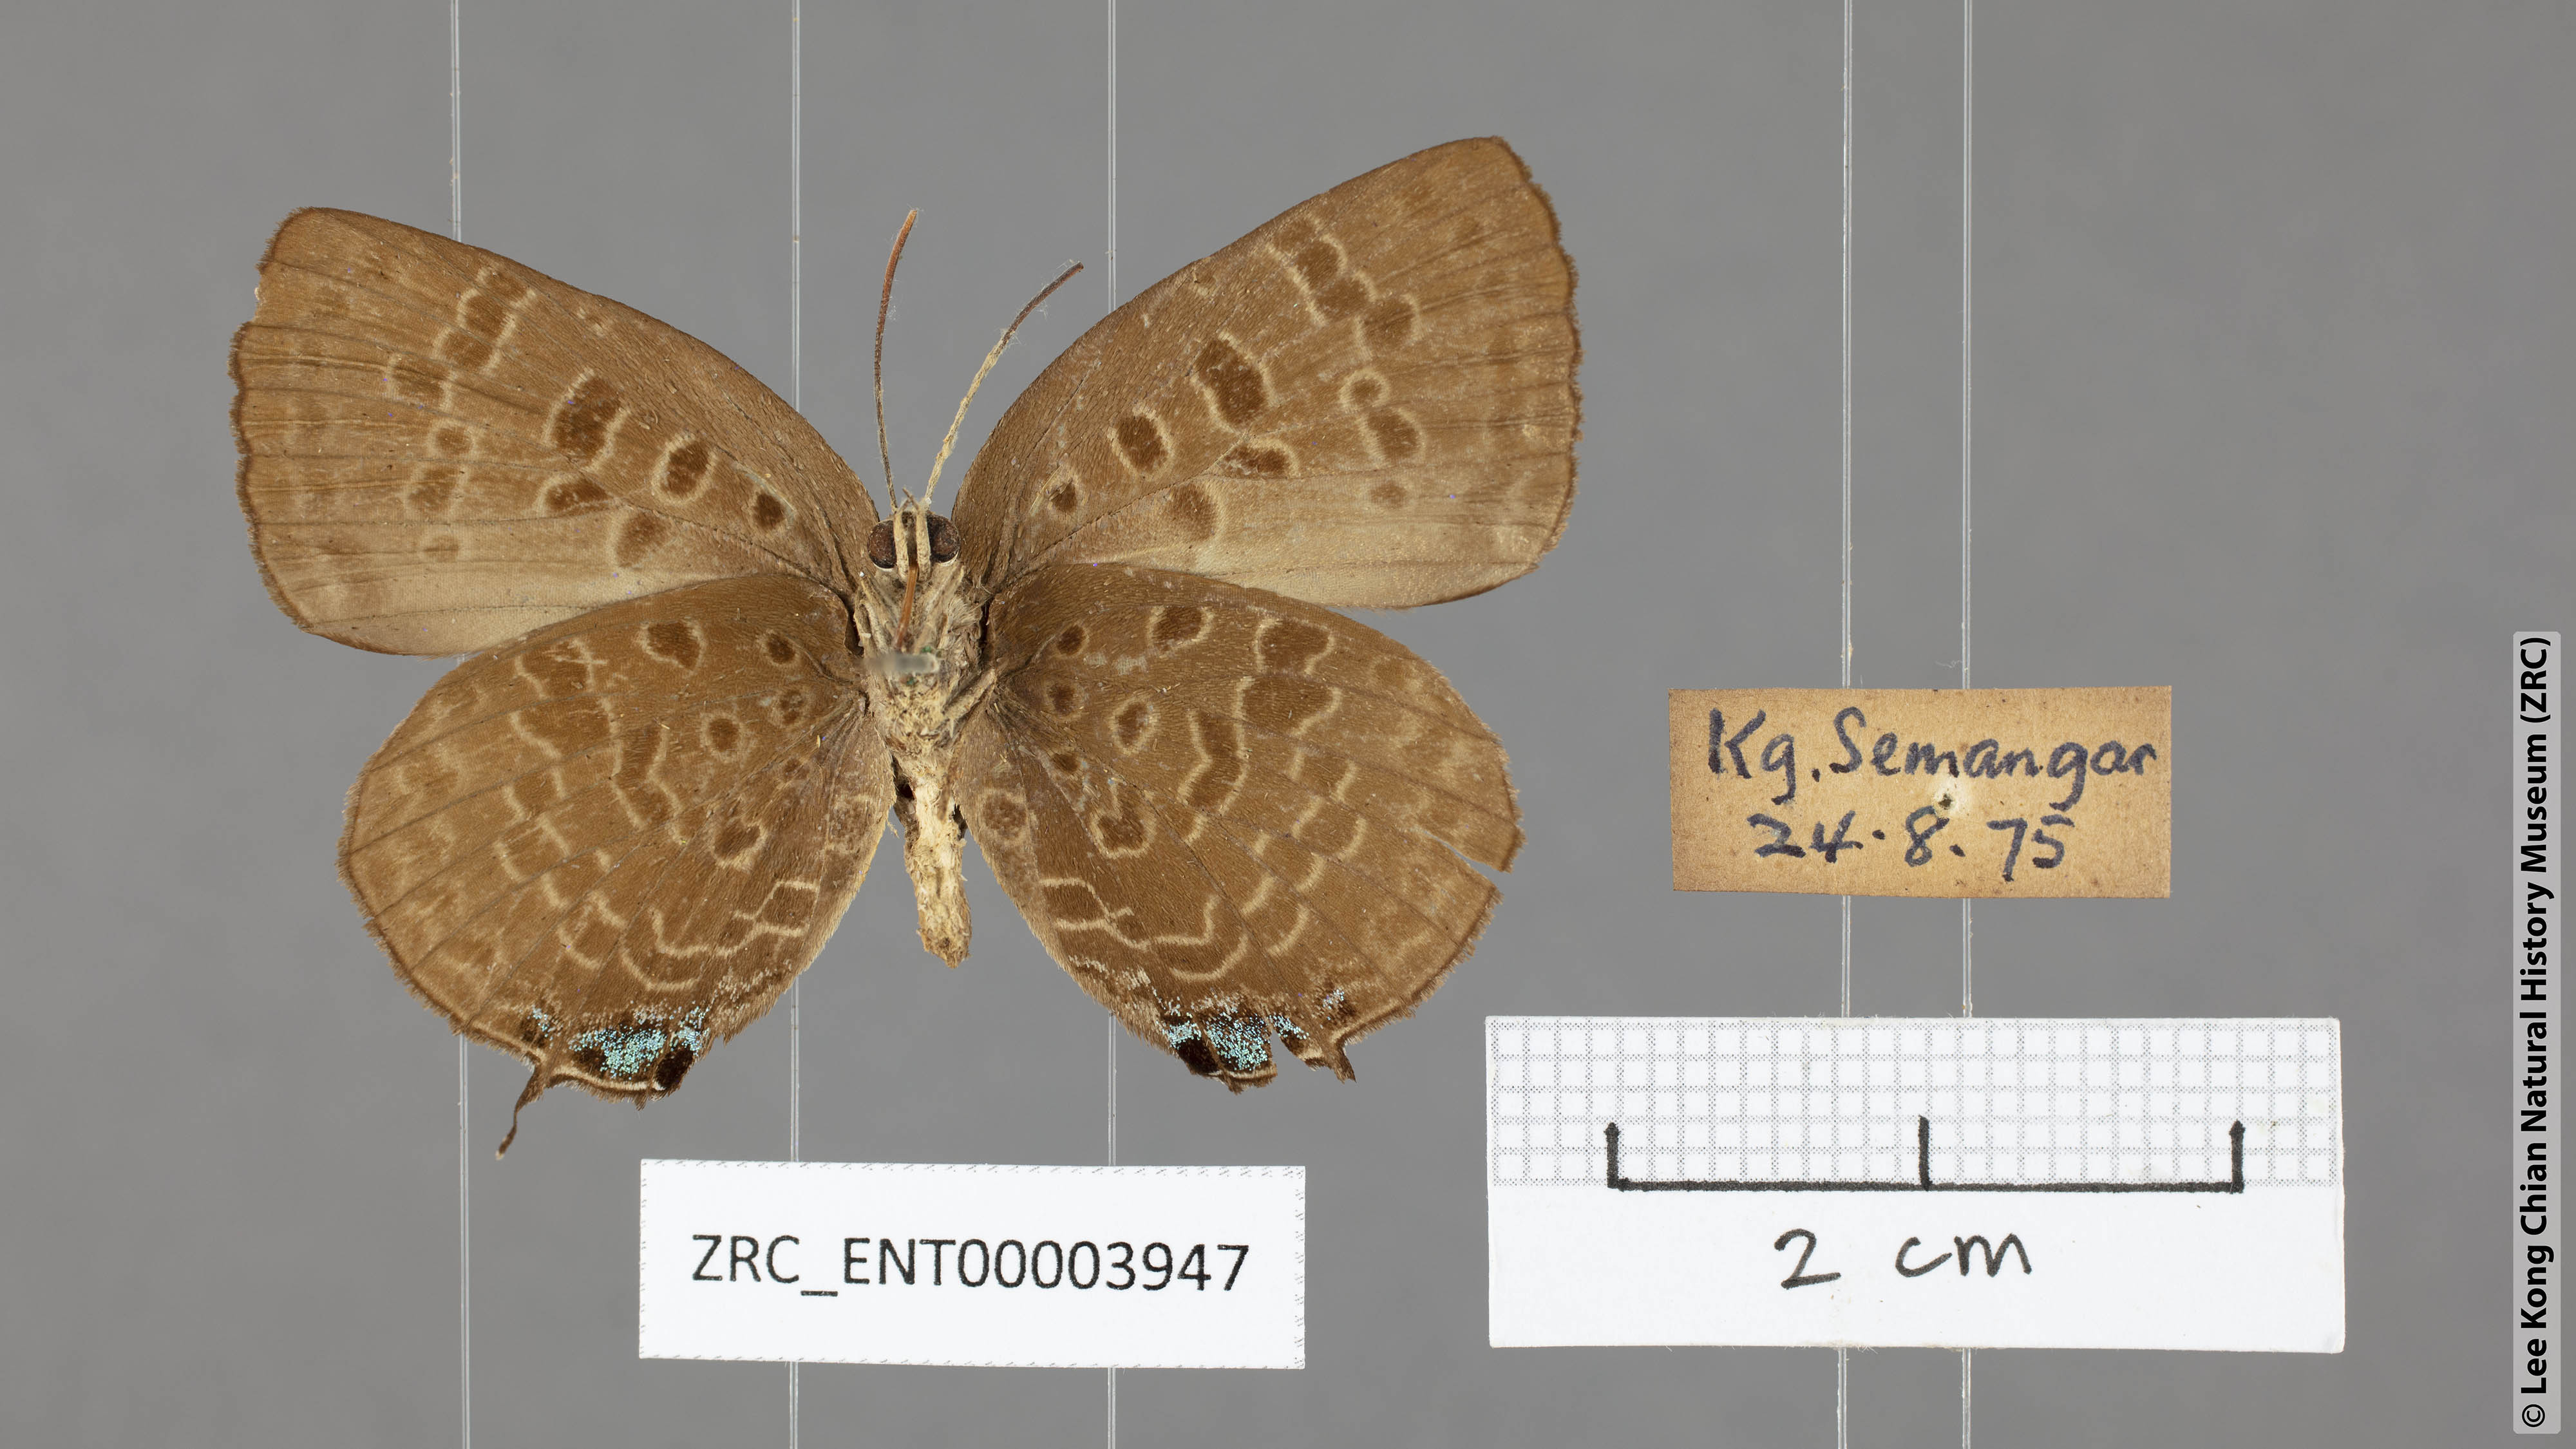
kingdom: Animalia
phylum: Arthropoda
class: Insecta
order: Lepidoptera
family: Lycaenidae
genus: Arhopala
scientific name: Arhopala horsfieldi
